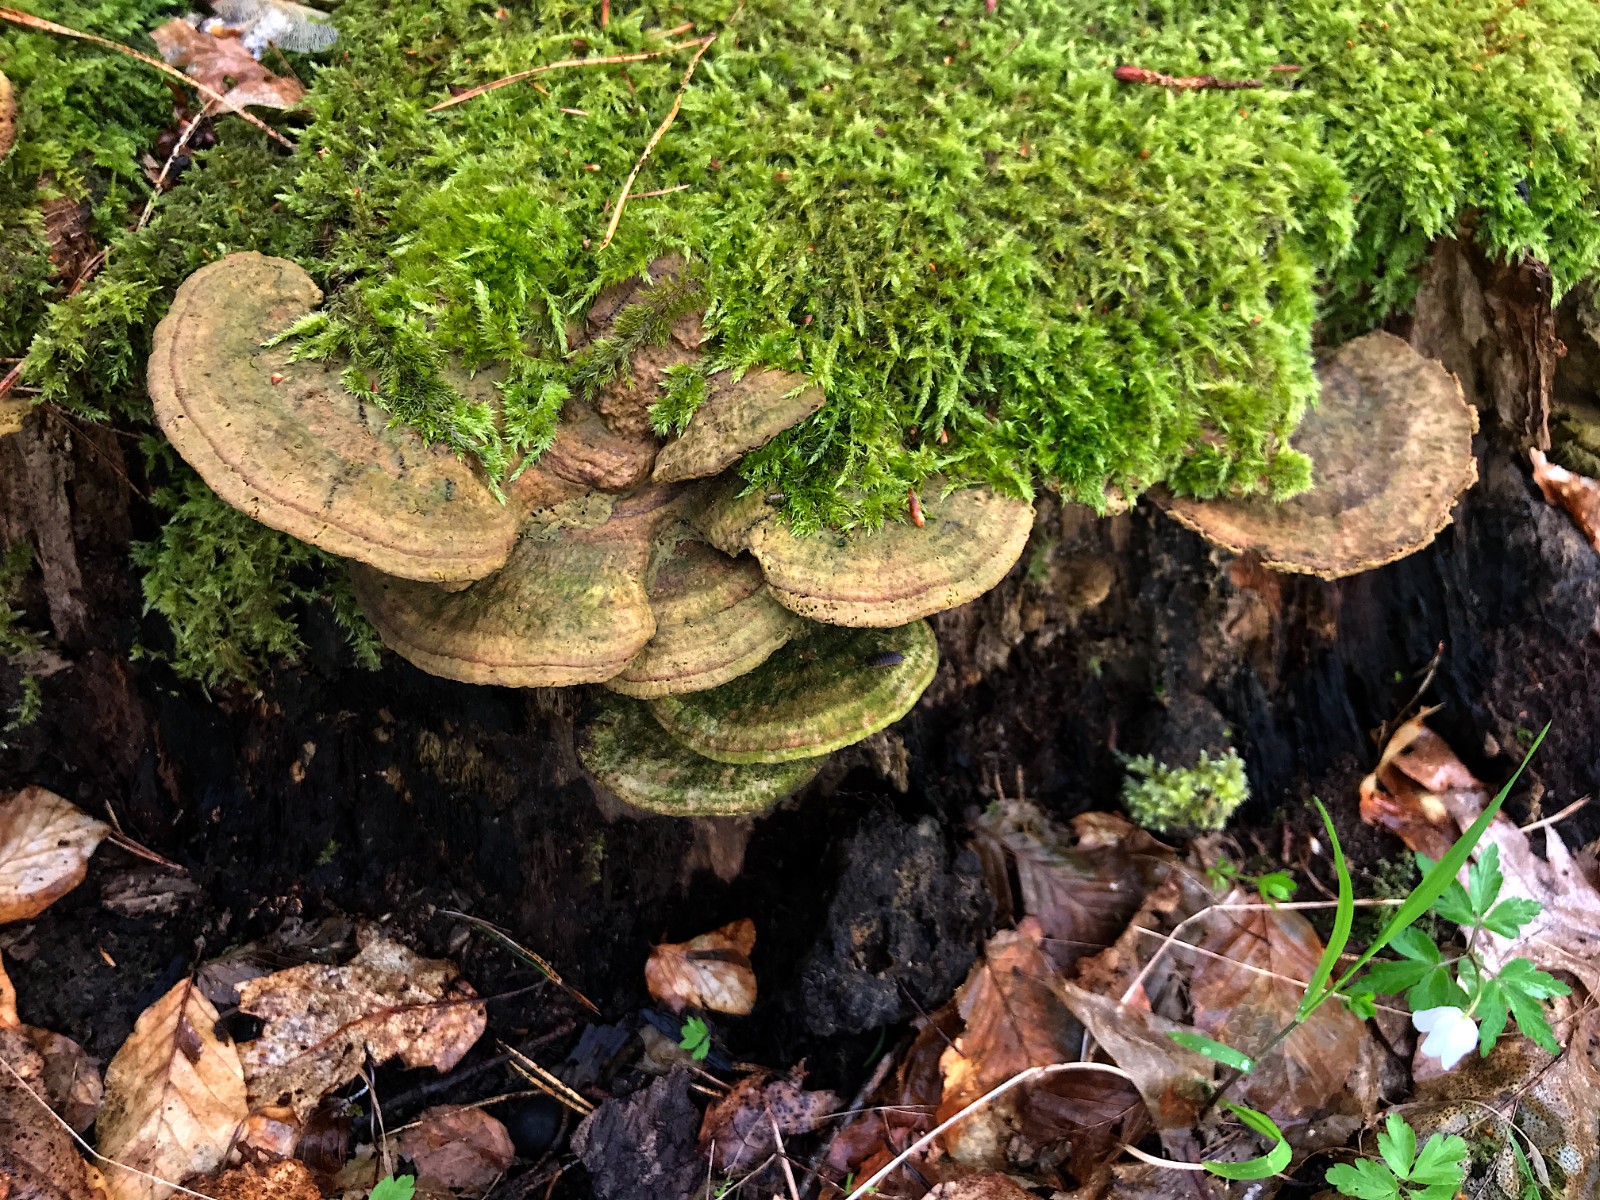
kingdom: Fungi
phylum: Basidiomycota
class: Agaricomycetes
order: Gloeophyllales
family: Gloeophyllaceae
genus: Gloeophyllum
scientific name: Gloeophyllum sepiarium
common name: fyrre-korkhat
